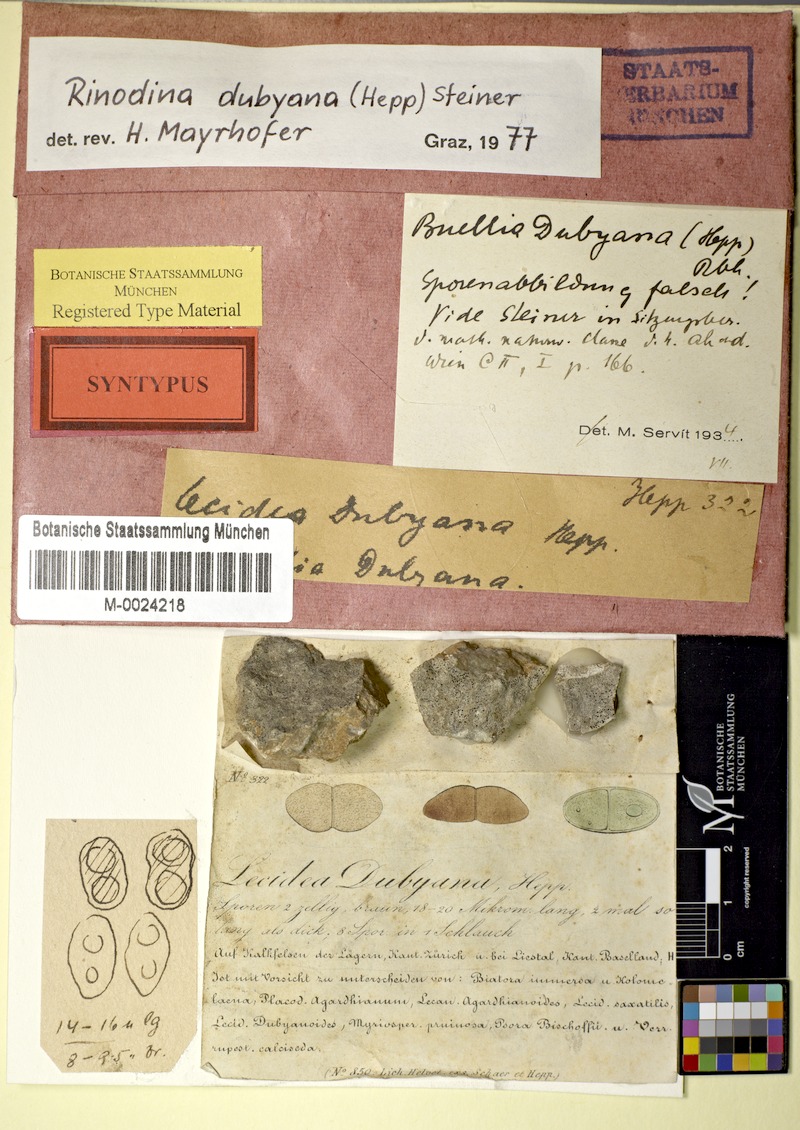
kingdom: Fungi
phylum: Ascomycota
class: Lecanoromycetes
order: Caliciales
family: Physciaceae
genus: Rinodina
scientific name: Rinodina dubyana
